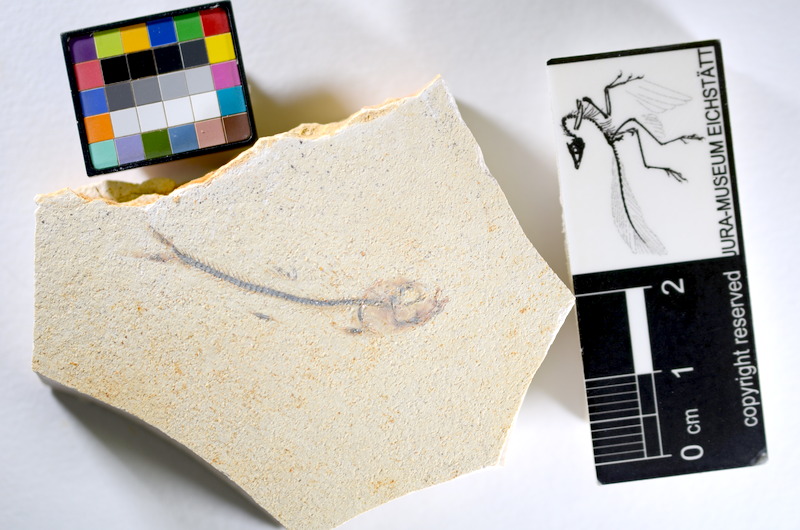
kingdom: Animalia
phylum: Chordata
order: Salmoniformes
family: Orthogonikleithridae
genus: Orthogonikleithrus
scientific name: Orthogonikleithrus hoelli
